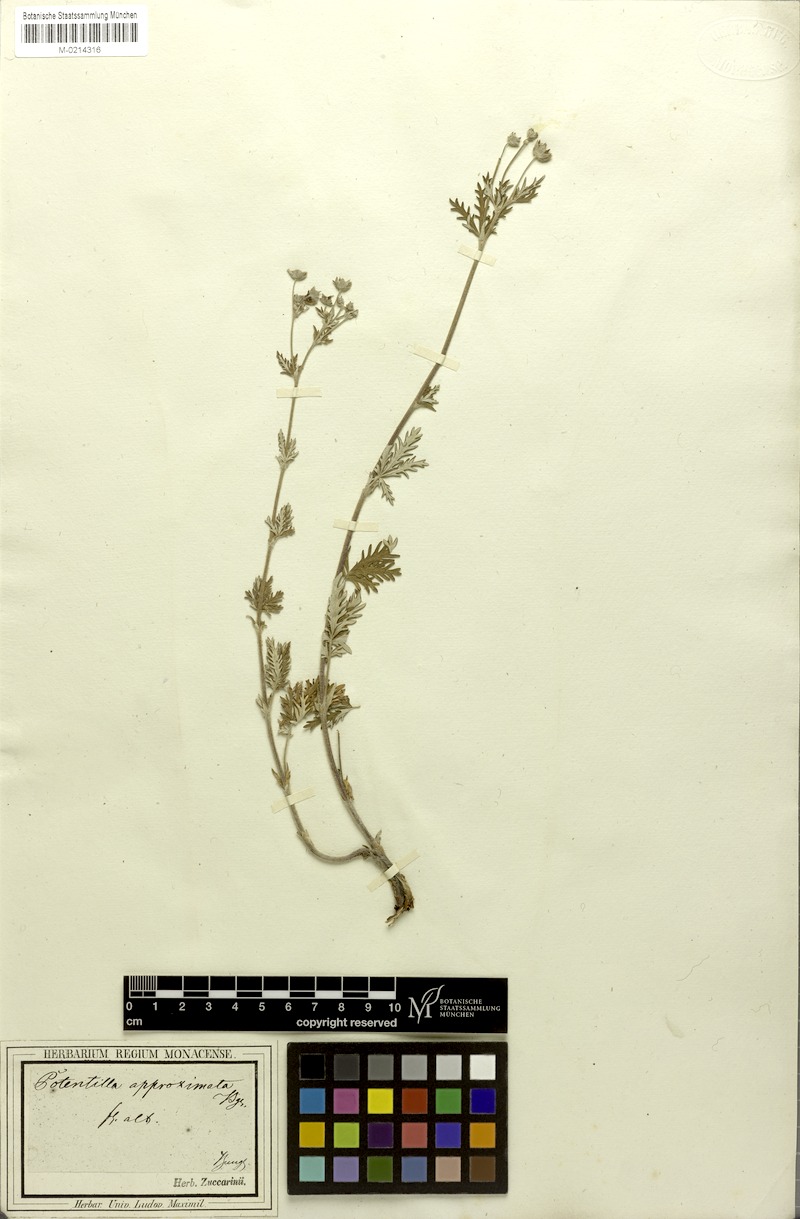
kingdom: Plantae
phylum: Tracheophyta
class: Magnoliopsida
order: Rosales
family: Rosaceae
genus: Potentilla
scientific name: Potentilla conferta
